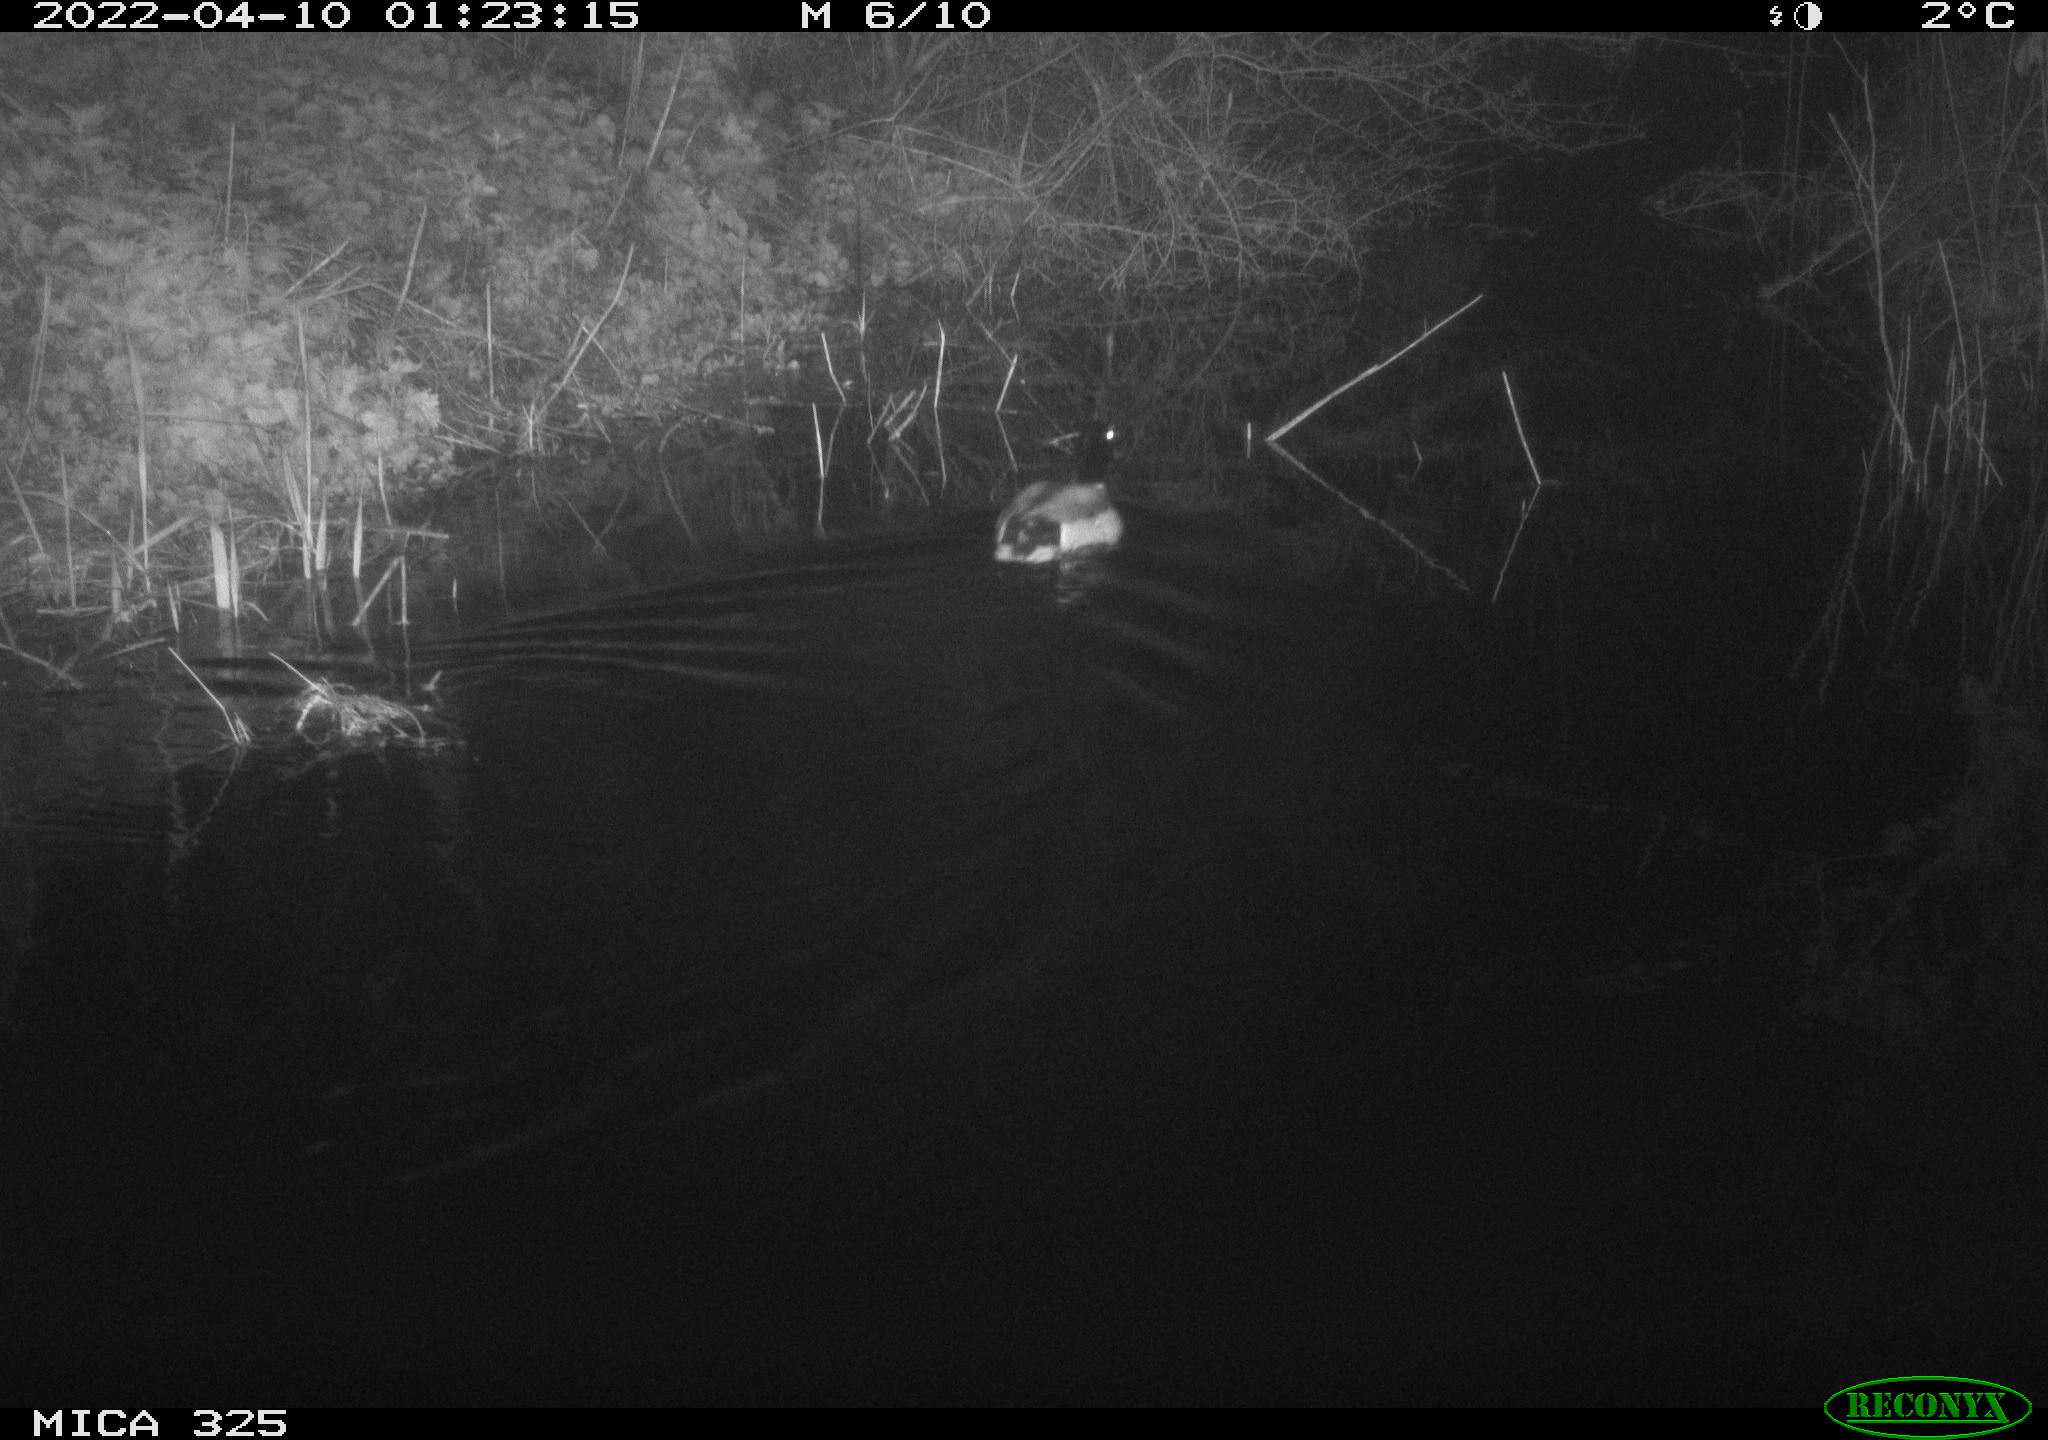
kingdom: Animalia
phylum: Chordata
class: Aves
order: Anseriformes
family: Anatidae
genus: Anas
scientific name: Anas platyrhynchos
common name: Mallard
